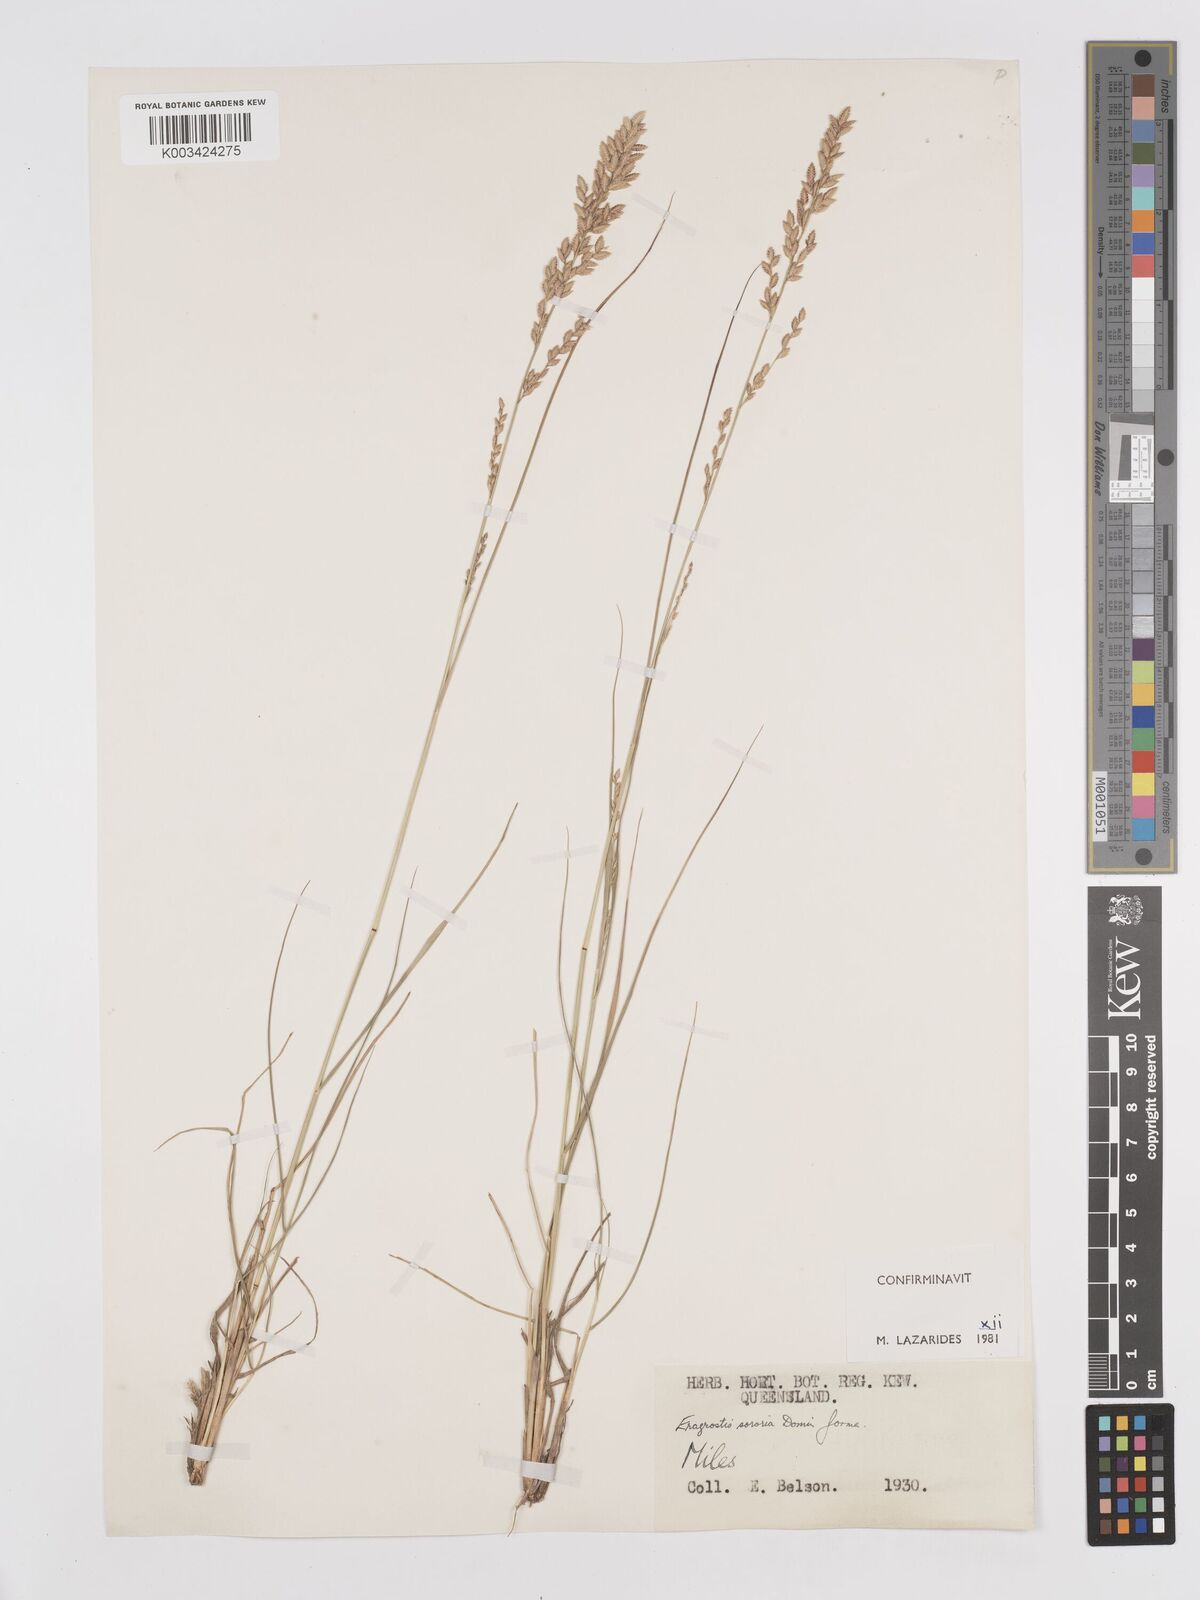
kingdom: Plantae
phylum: Tracheophyta
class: Liliopsida
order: Poales
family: Poaceae
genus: Eragrostis
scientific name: Eragrostis sororia
